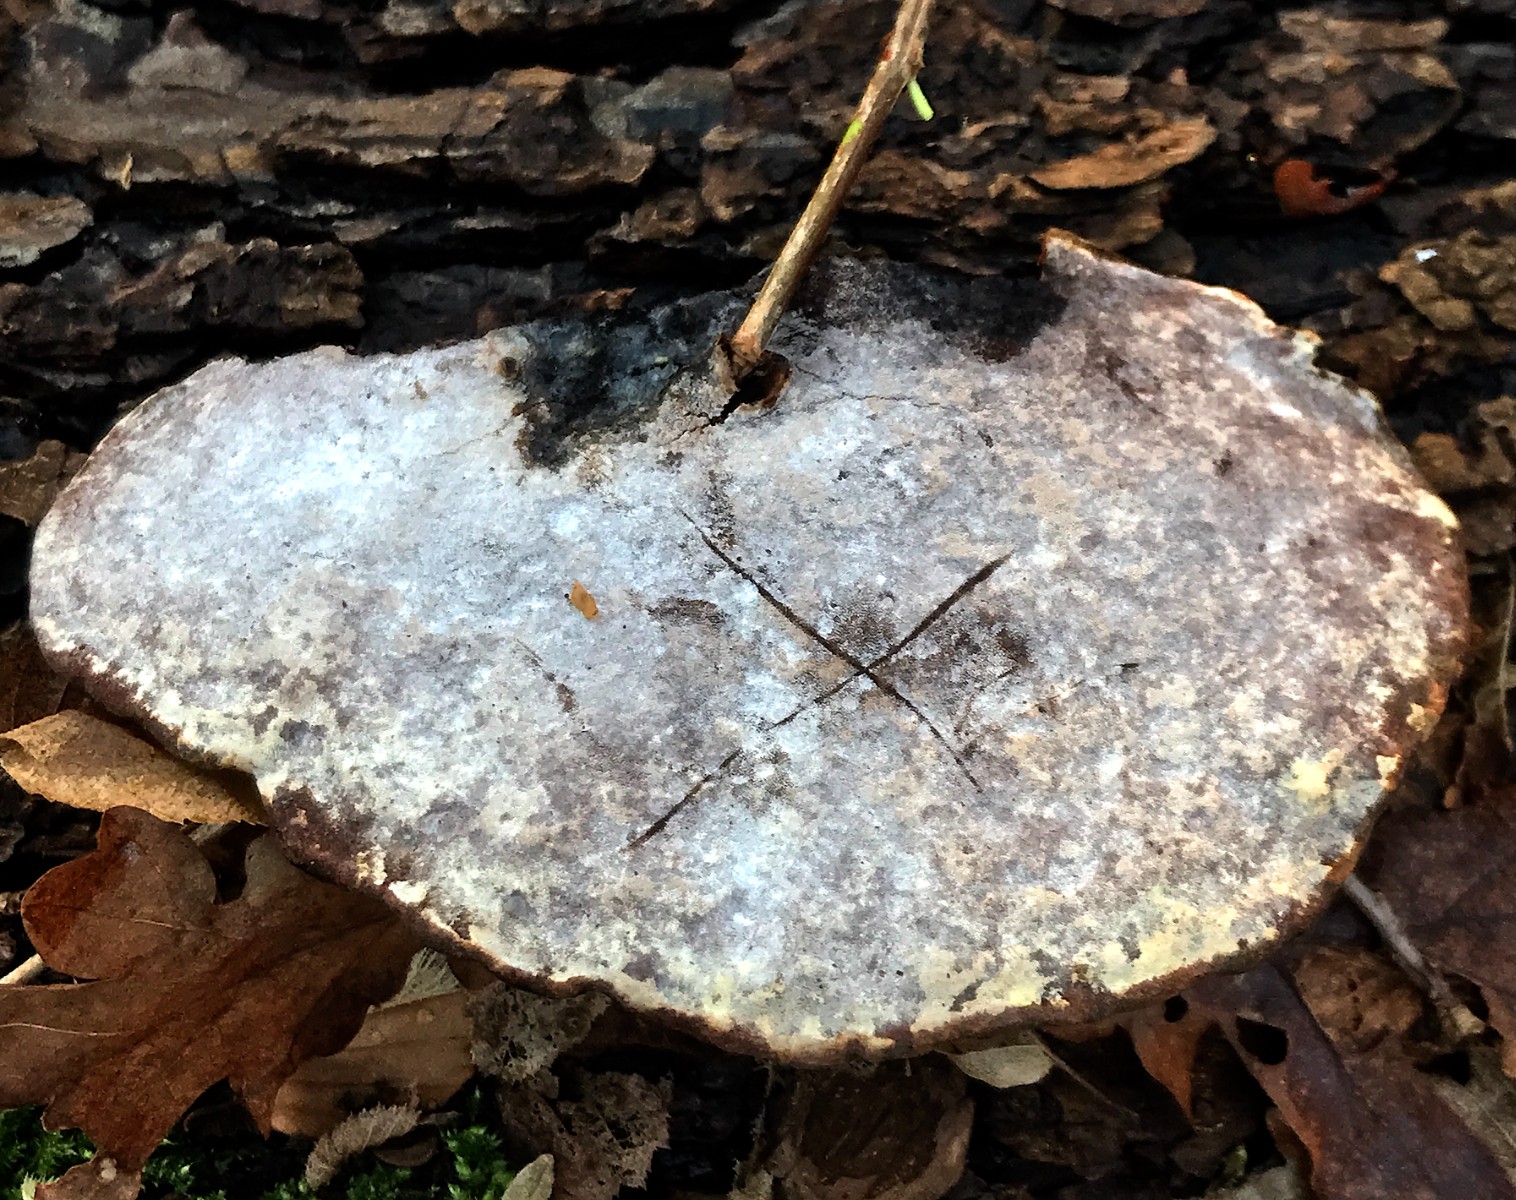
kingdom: Fungi
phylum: Basidiomycota
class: Agaricomycetes
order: Polyporales
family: Polyporaceae
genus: Ganoderma
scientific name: Ganoderma applanatum
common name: flad lakporesvamp
